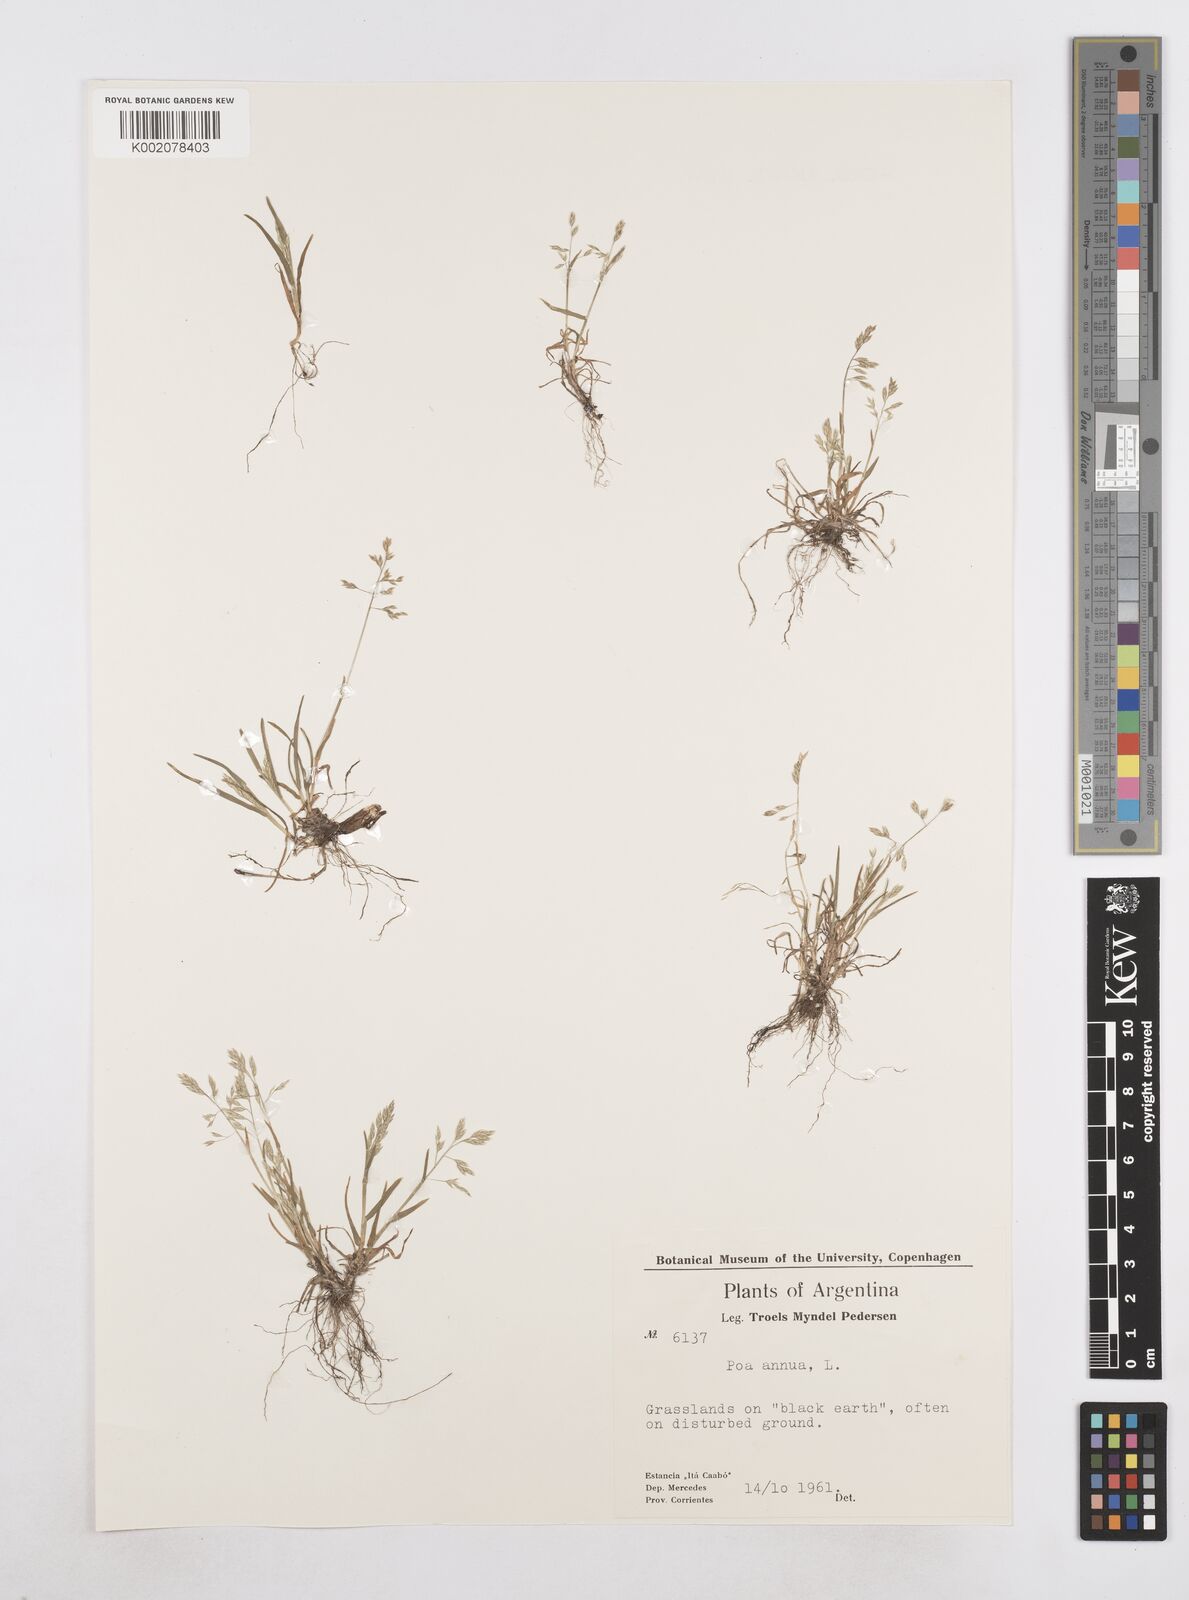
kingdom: Plantae
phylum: Tracheophyta
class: Liliopsida
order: Poales
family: Poaceae
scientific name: Poaceae
